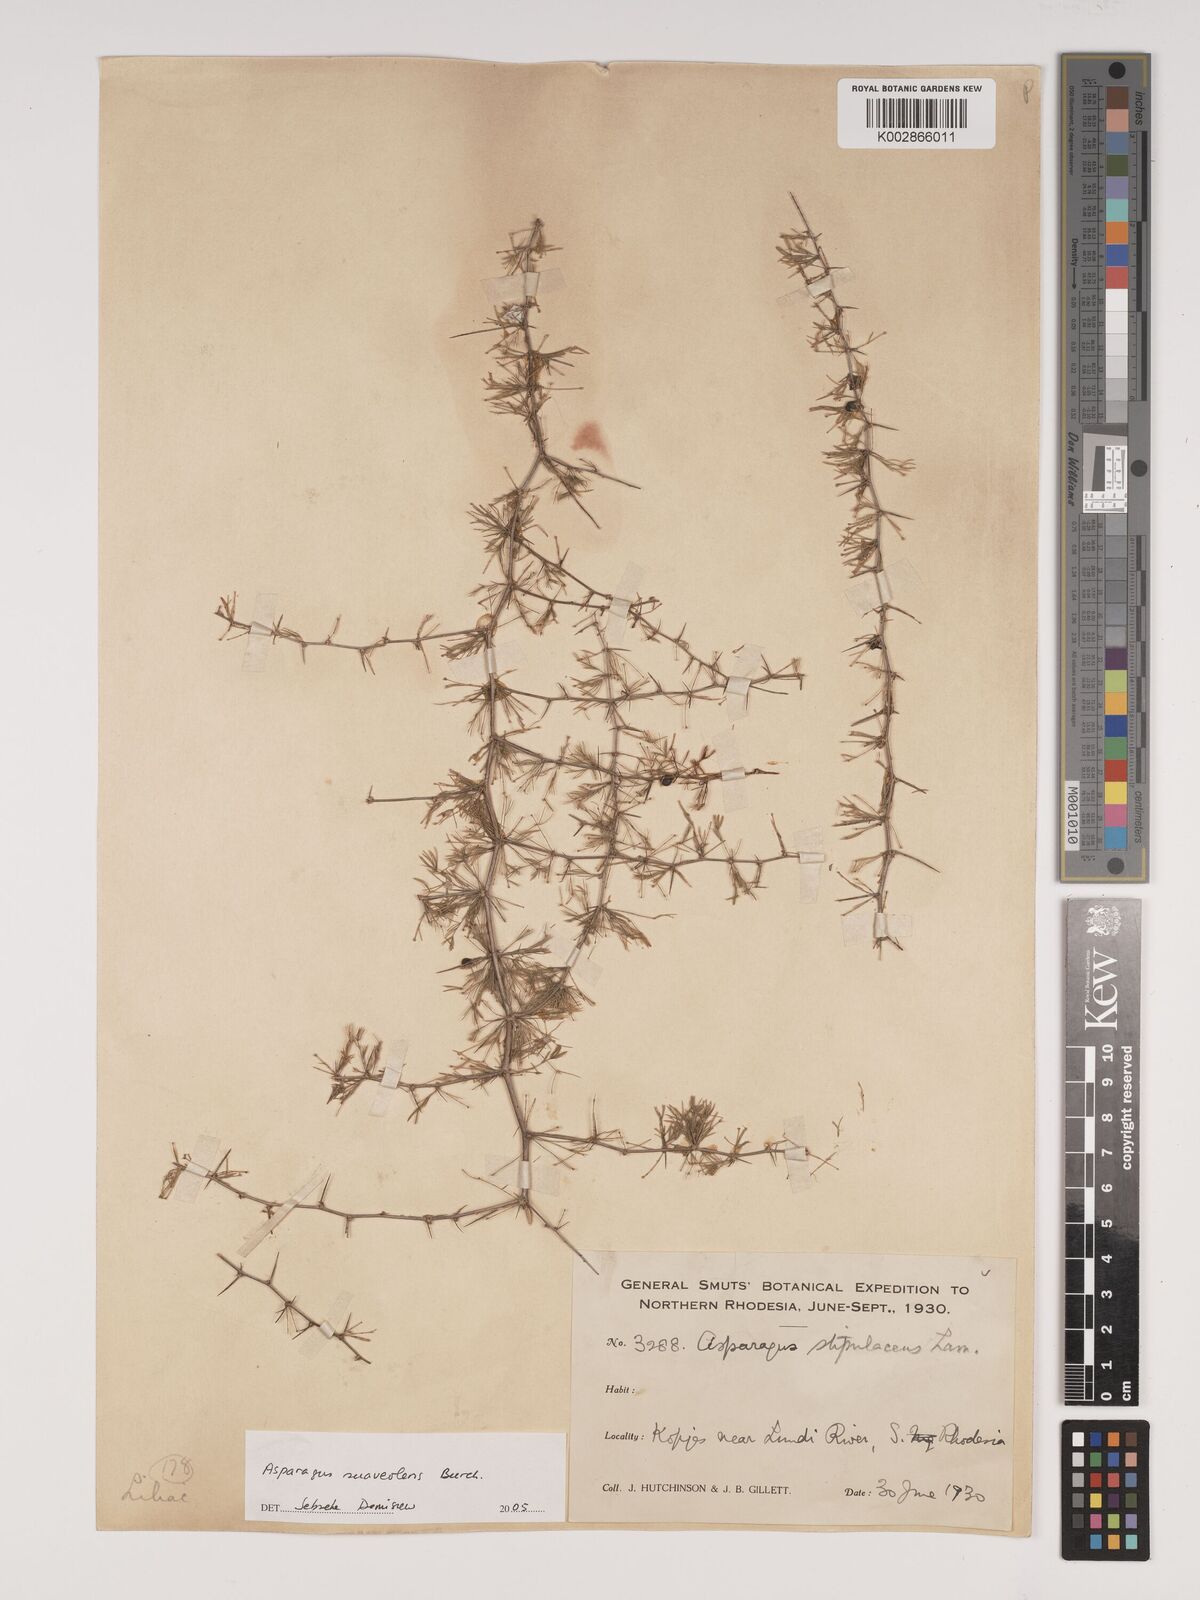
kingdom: Plantae
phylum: Tracheophyta
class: Liliopsida
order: Asparagales
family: Asparagaceae
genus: Asparagus
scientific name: Asparagus suaveolens
